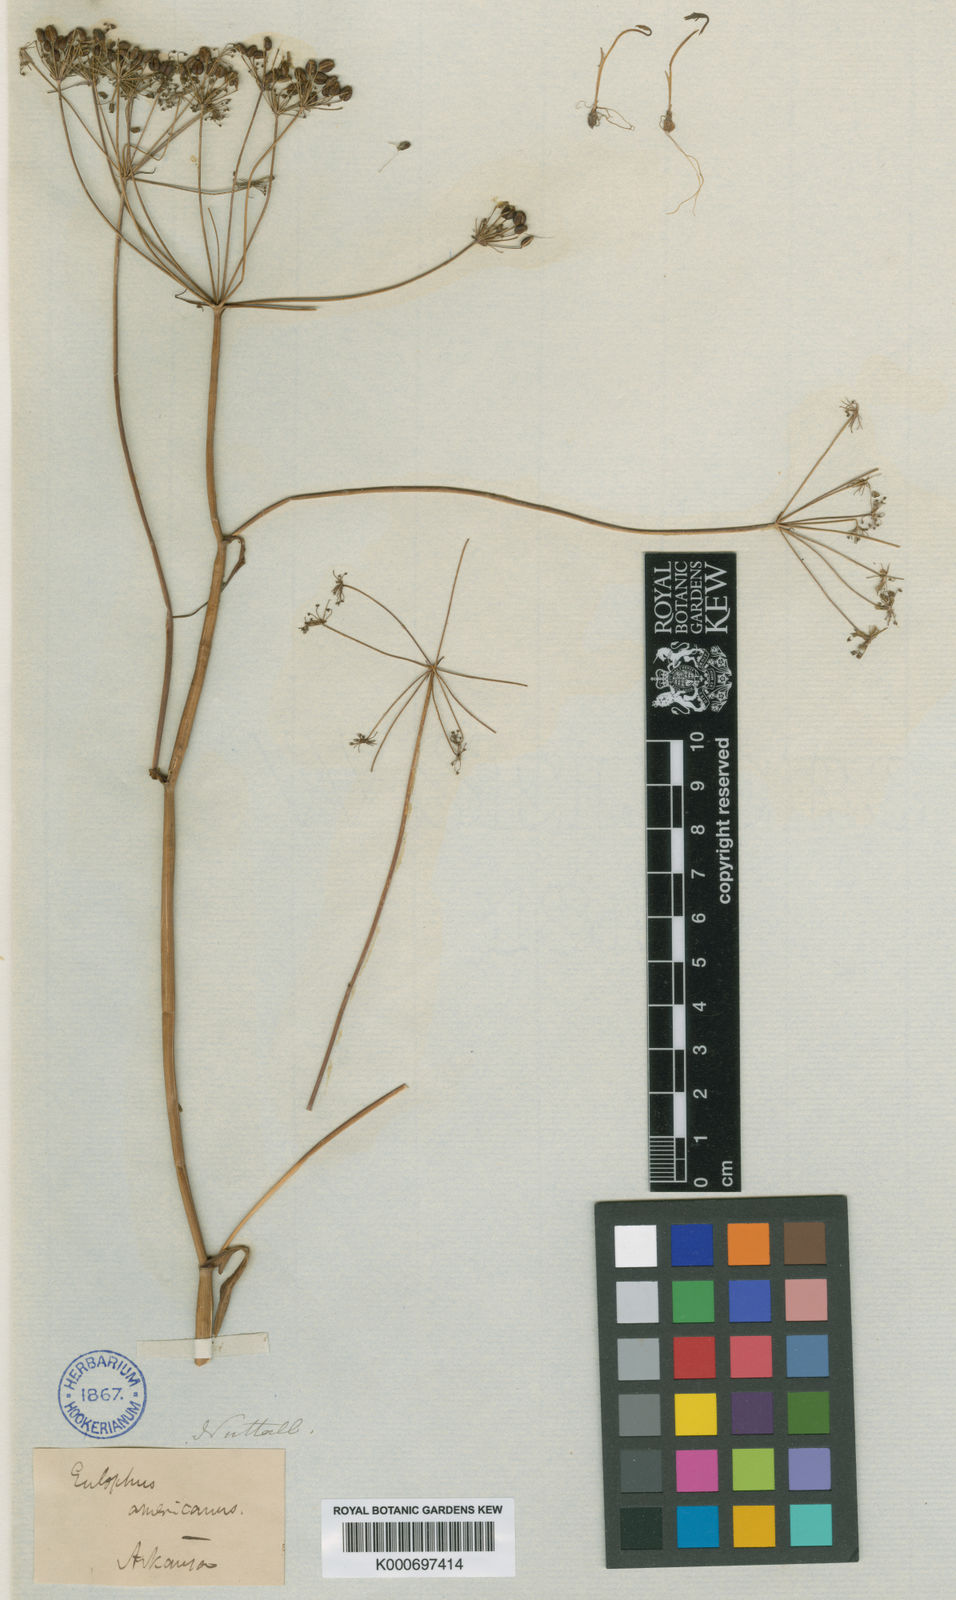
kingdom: Plantae
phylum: Tracheophyta
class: Magnoliopsida
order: Apiales
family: Apiaceae
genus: Perideridia
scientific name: Perideridia americana
